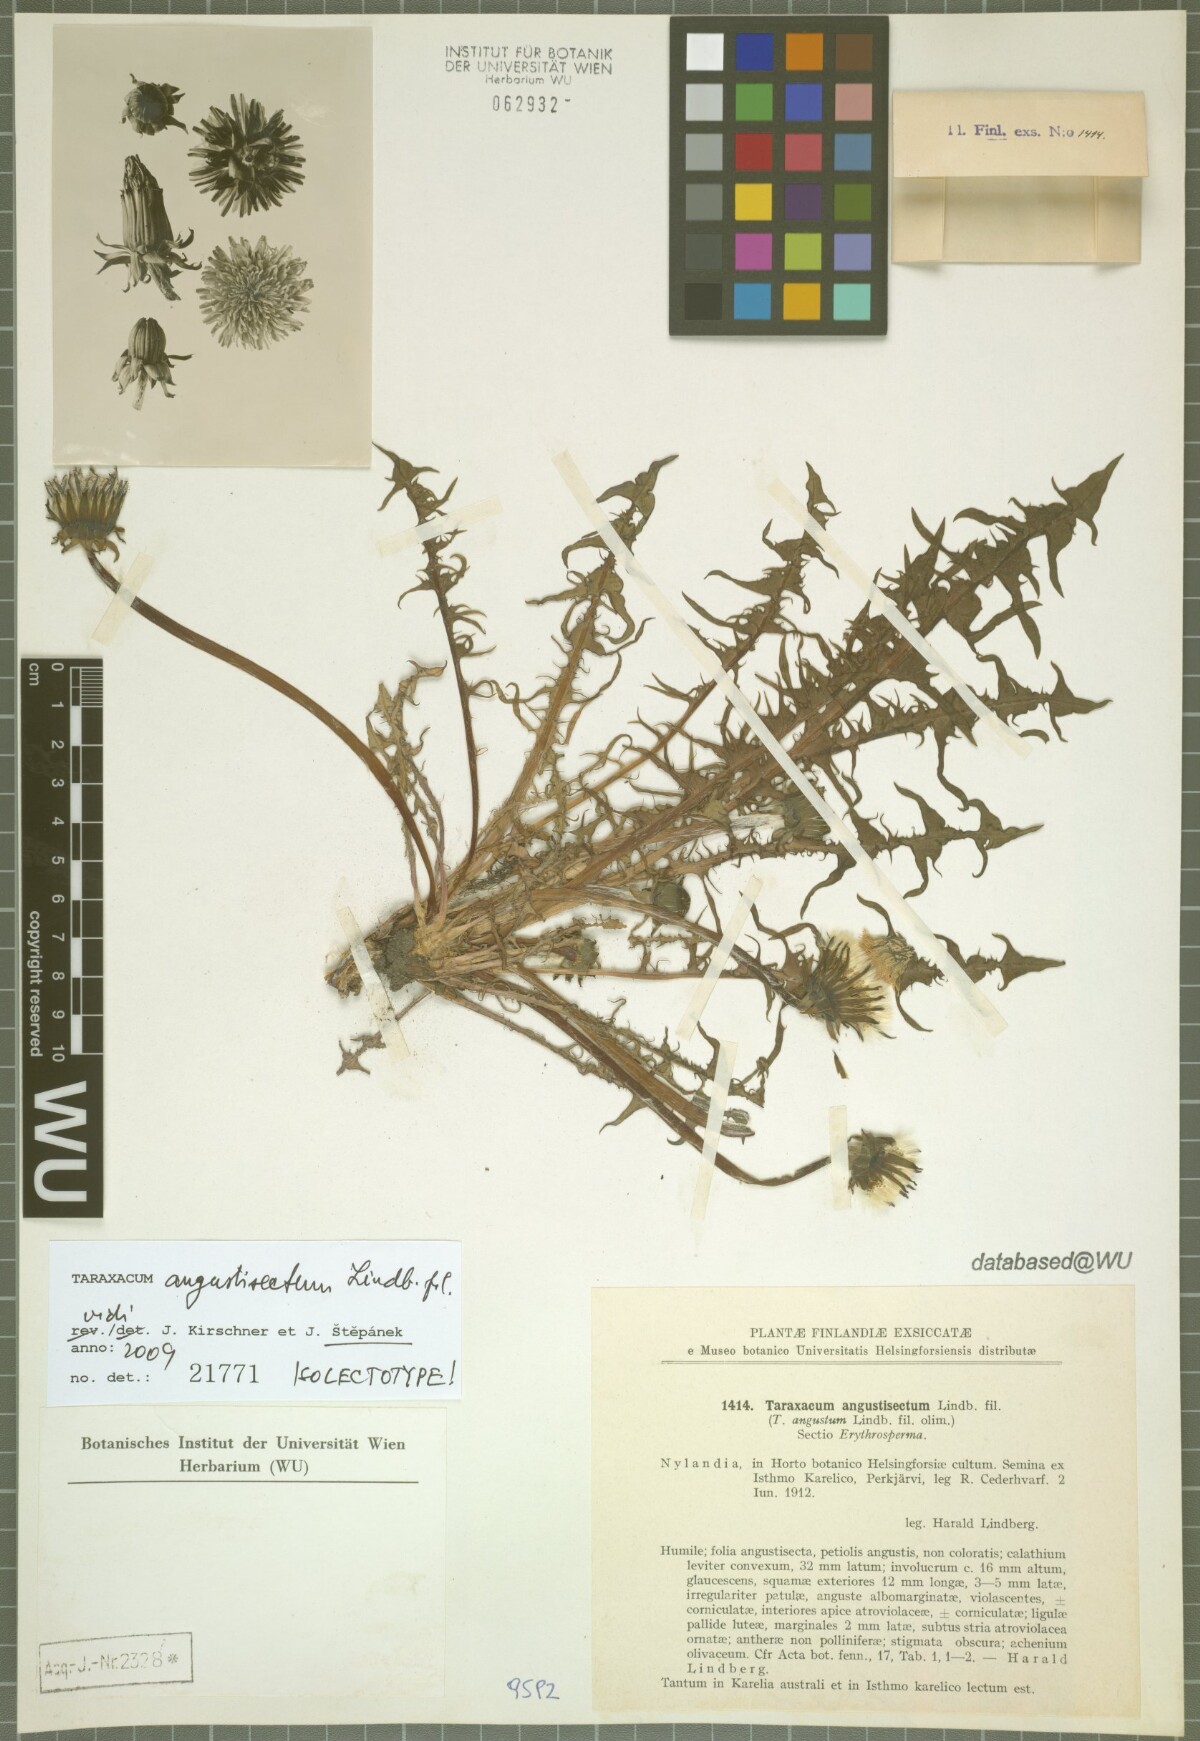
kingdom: Plantae
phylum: Tracheophyta
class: Magnoliopsida
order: Asterales
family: Asteraceae
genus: Taraxacum
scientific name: Taraxacum angustisectum
